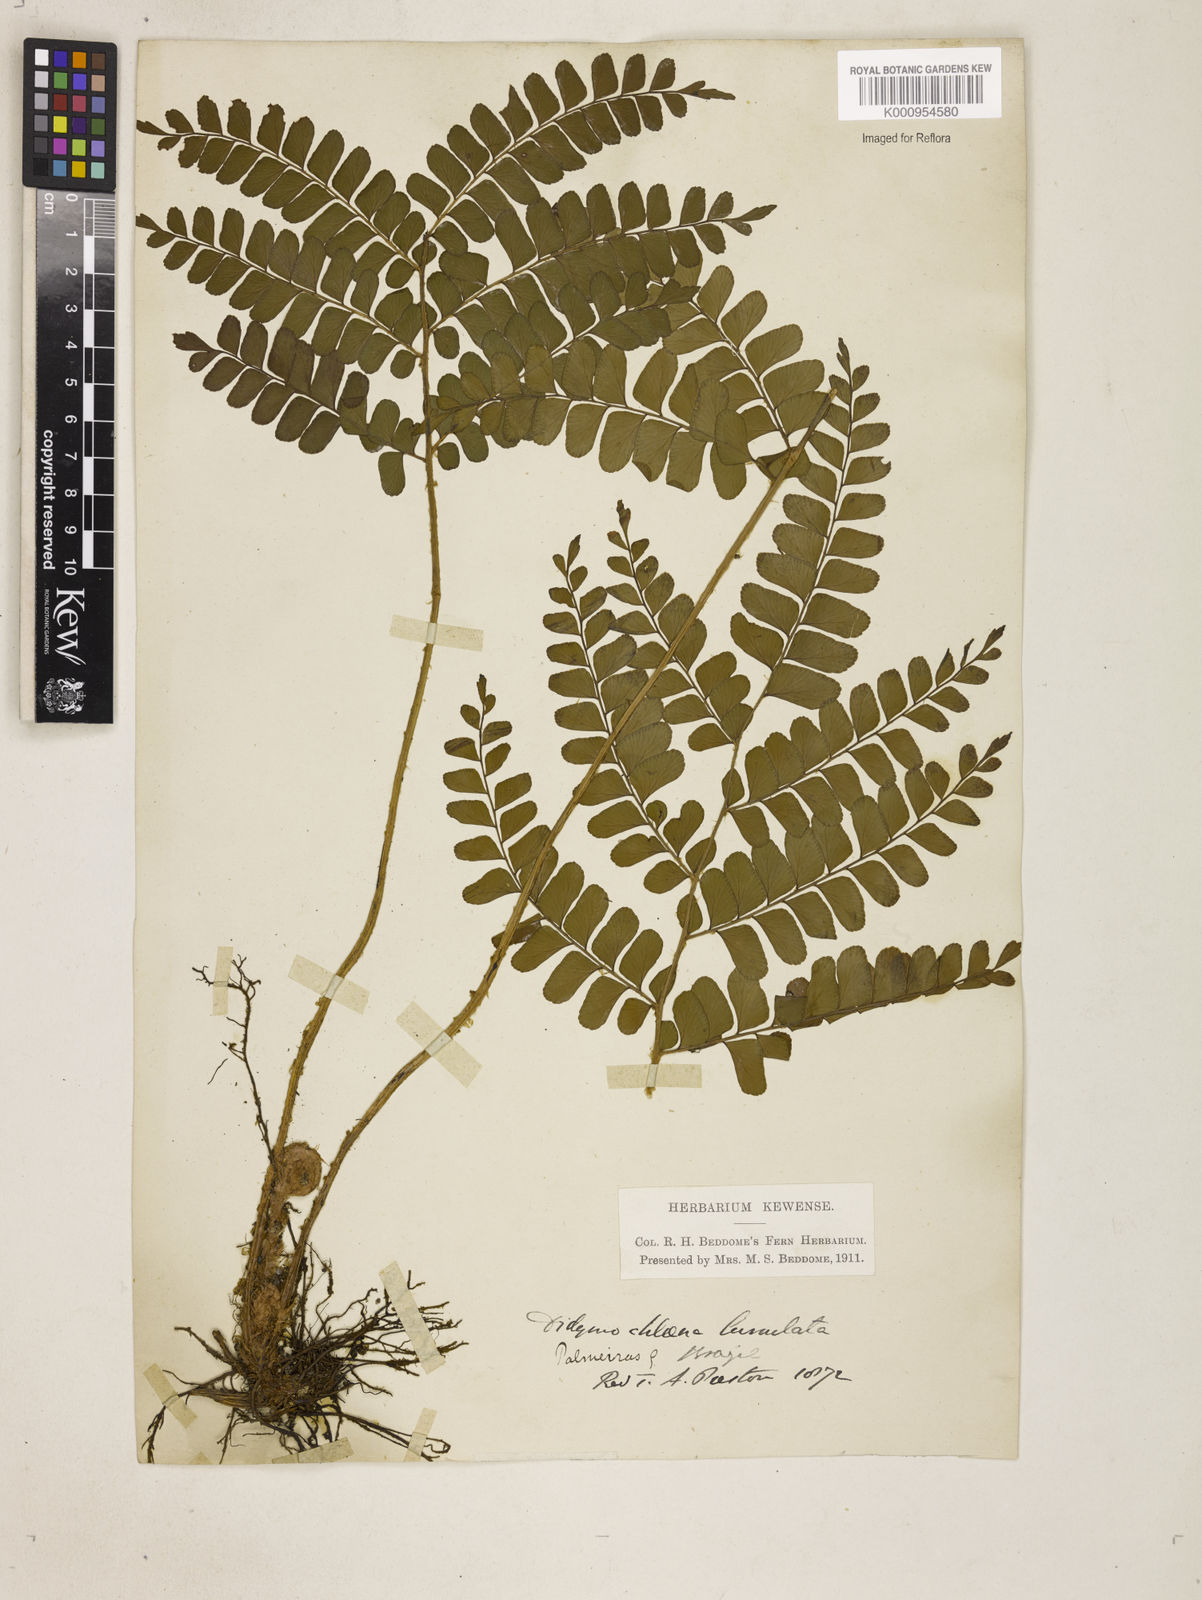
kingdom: Plantae
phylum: Tracheophyta
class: Polypodiopsida
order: Polypodiales
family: Didymochlaenaceae
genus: Didymochlaena
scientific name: Didymochlaena truncatula
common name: Mahogany fern
